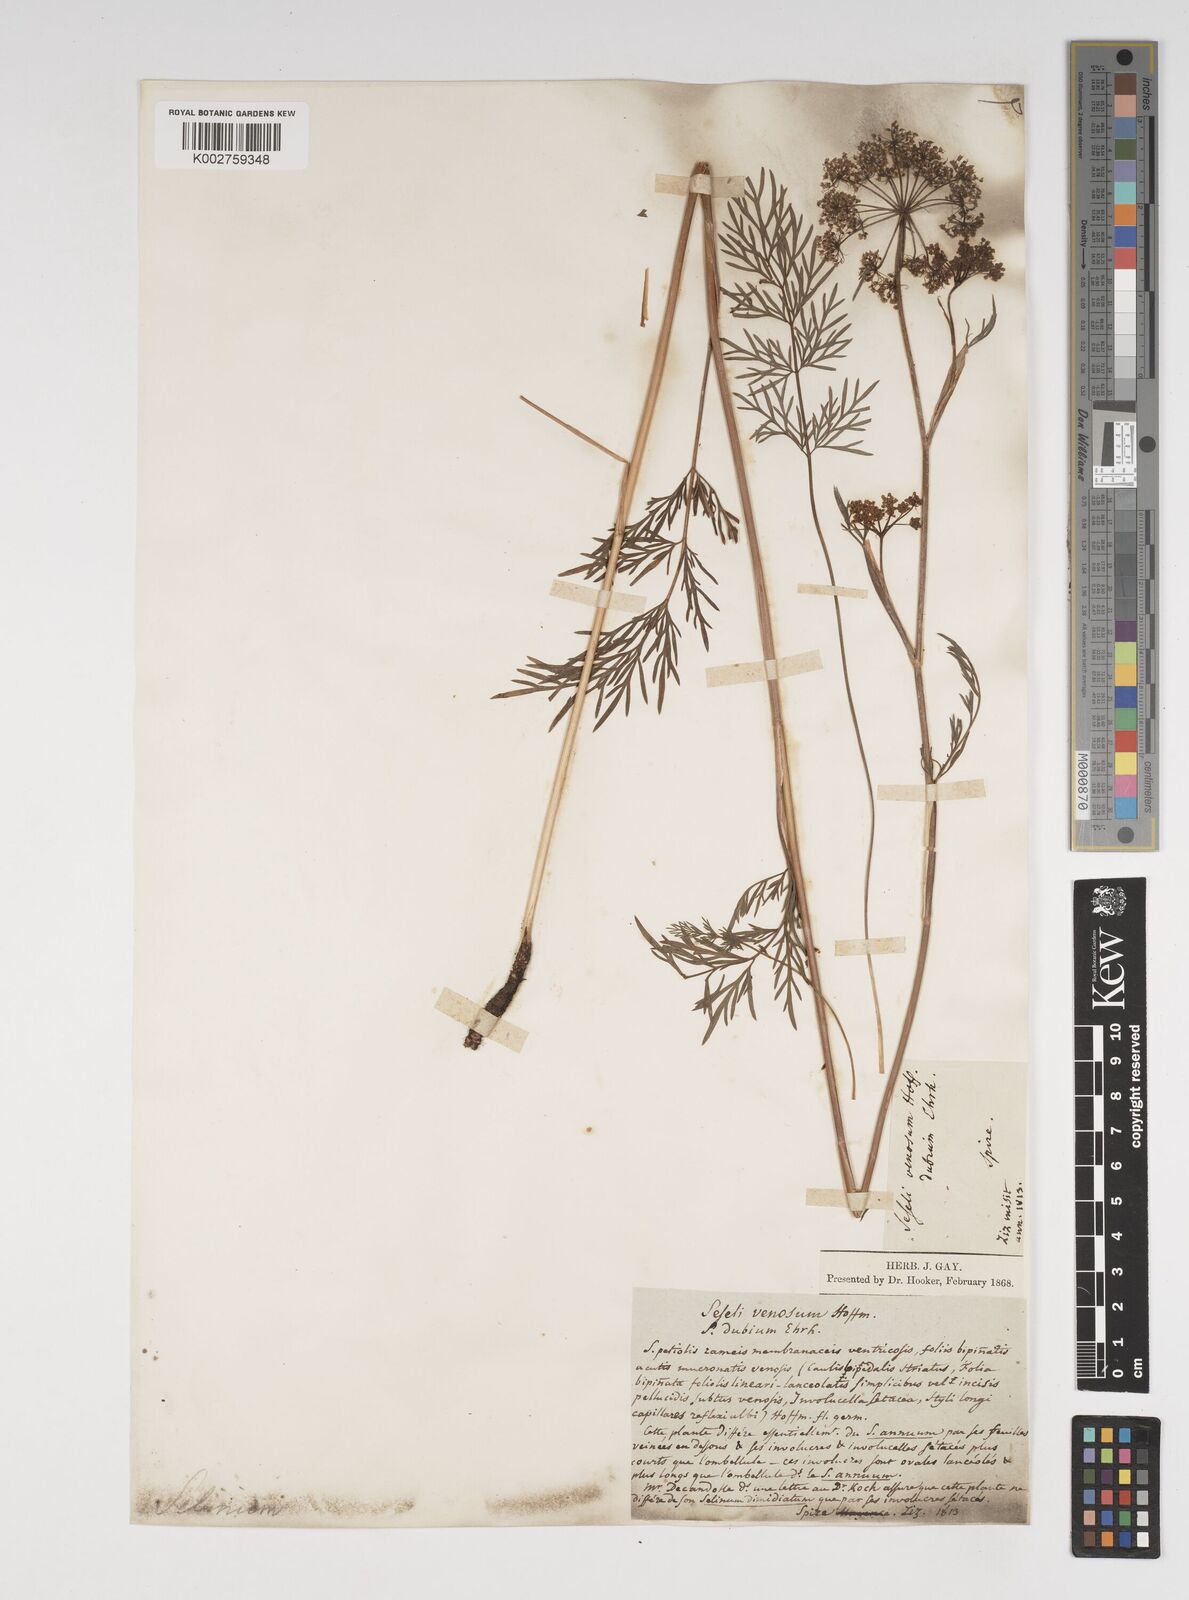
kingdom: Plantae
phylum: Tracheophyta
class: Magnoliopsida
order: Apiales
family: Apiaceae
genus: Kadenia
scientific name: Kadenia dubia
